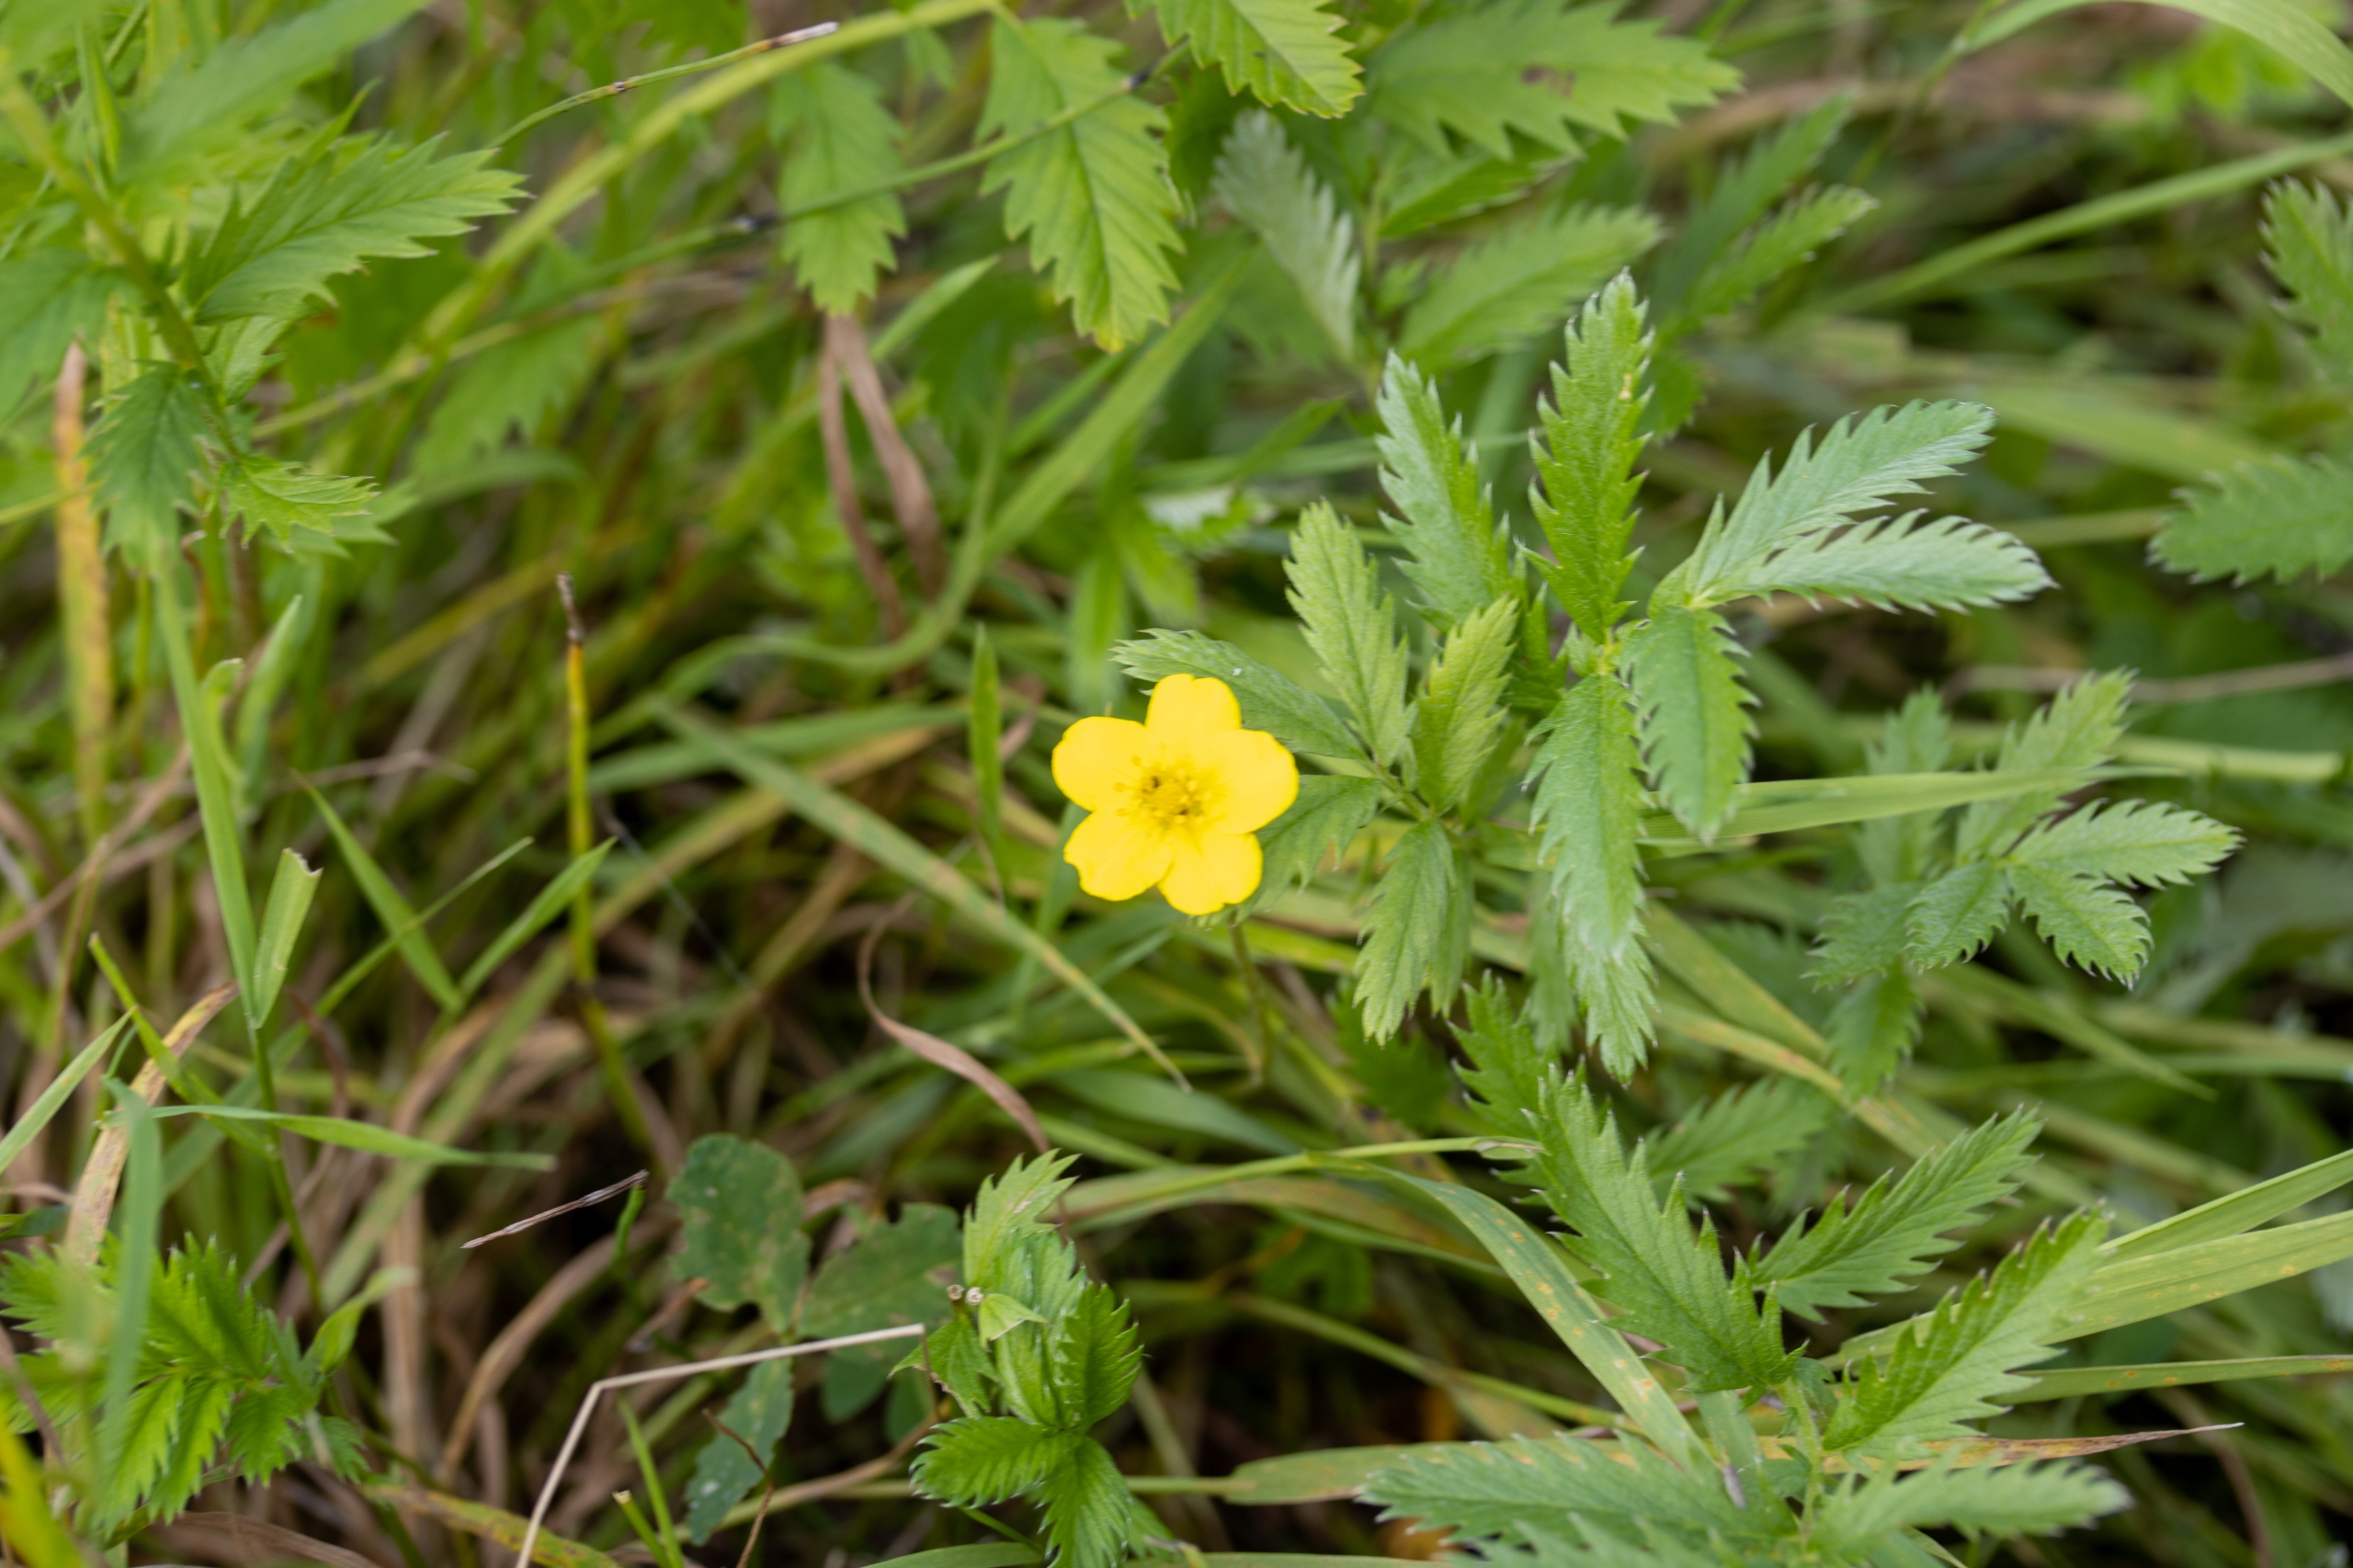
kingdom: Plantae
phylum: Tracheophyta
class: Magnoliopsida
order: Rosales
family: Rosaceae
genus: Argentina
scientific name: Argentina anserina
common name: Gåsepotentil
